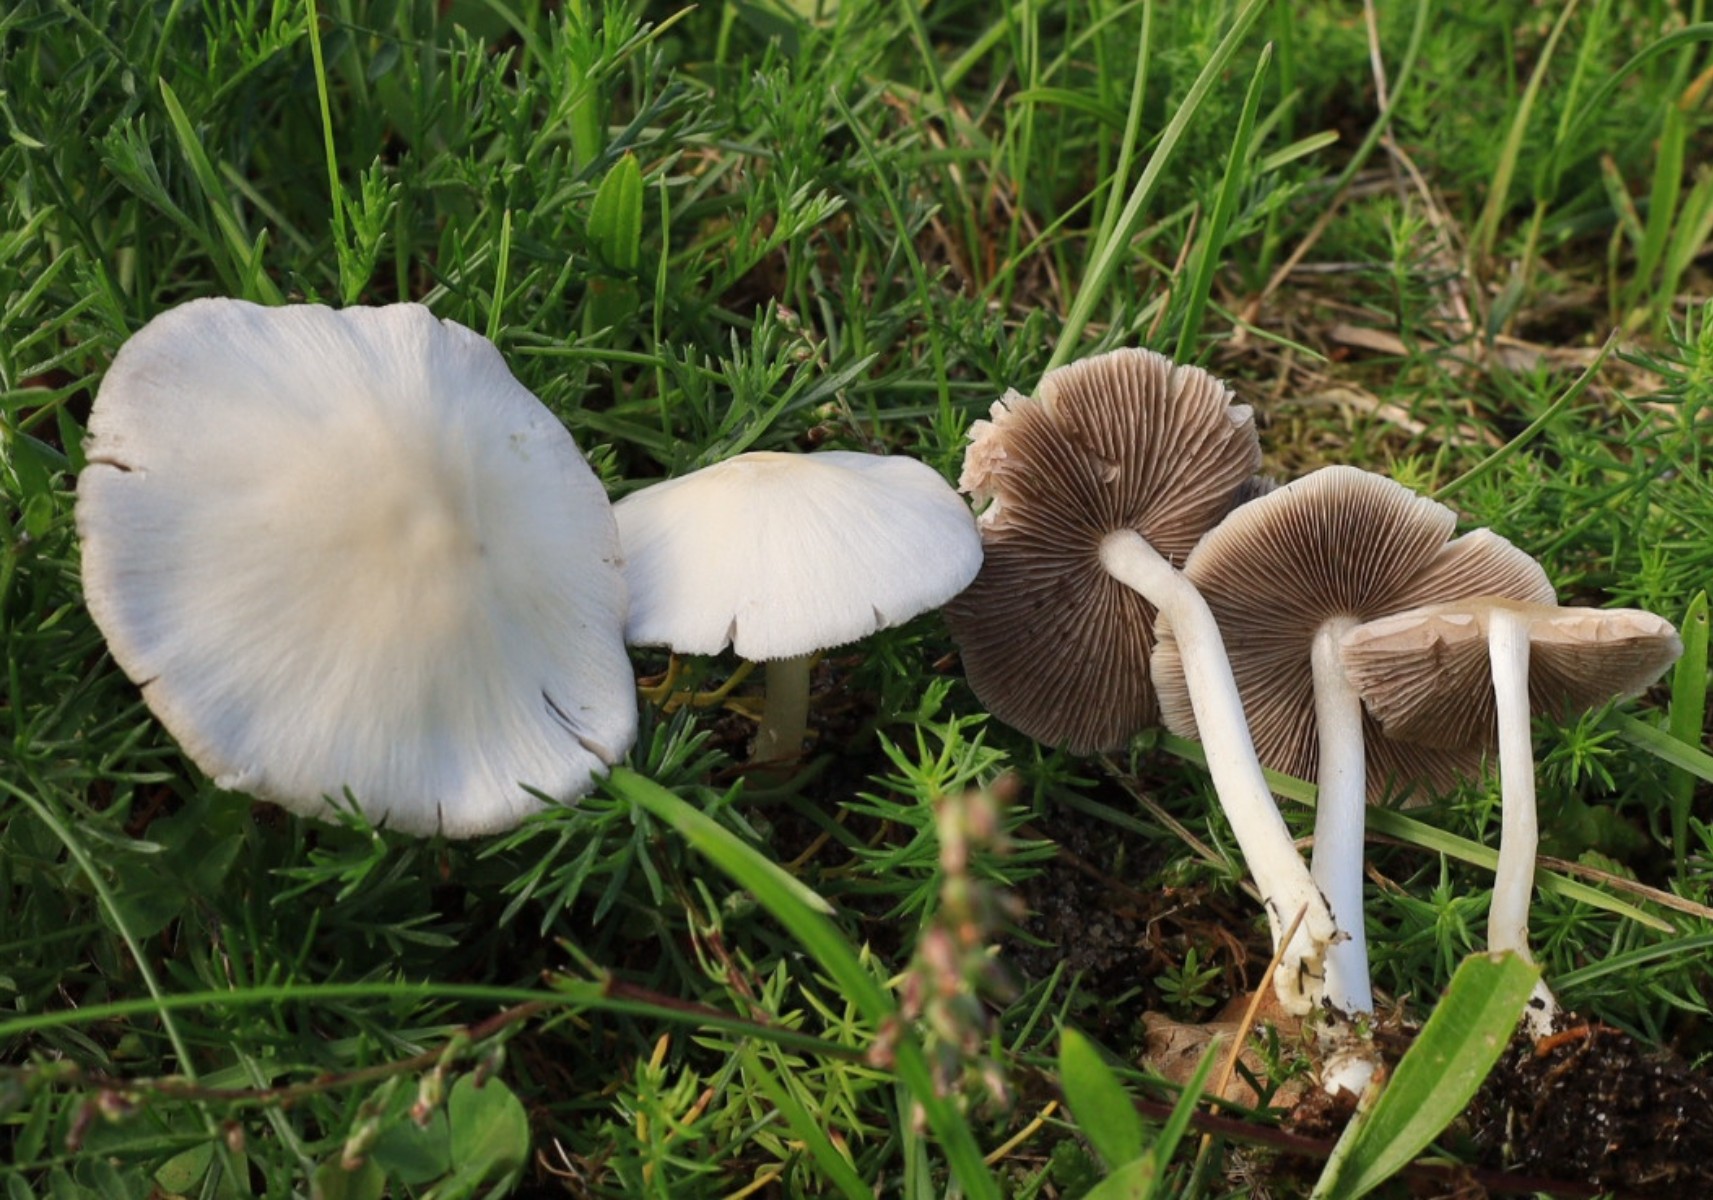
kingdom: Fungi
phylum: Basidiomycota
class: Agaricomycetes
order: Agaricales
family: Psathyrellaceae
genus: Candolleomyces
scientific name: Candolleomyces candolleanus
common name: Candolles mørkhat
